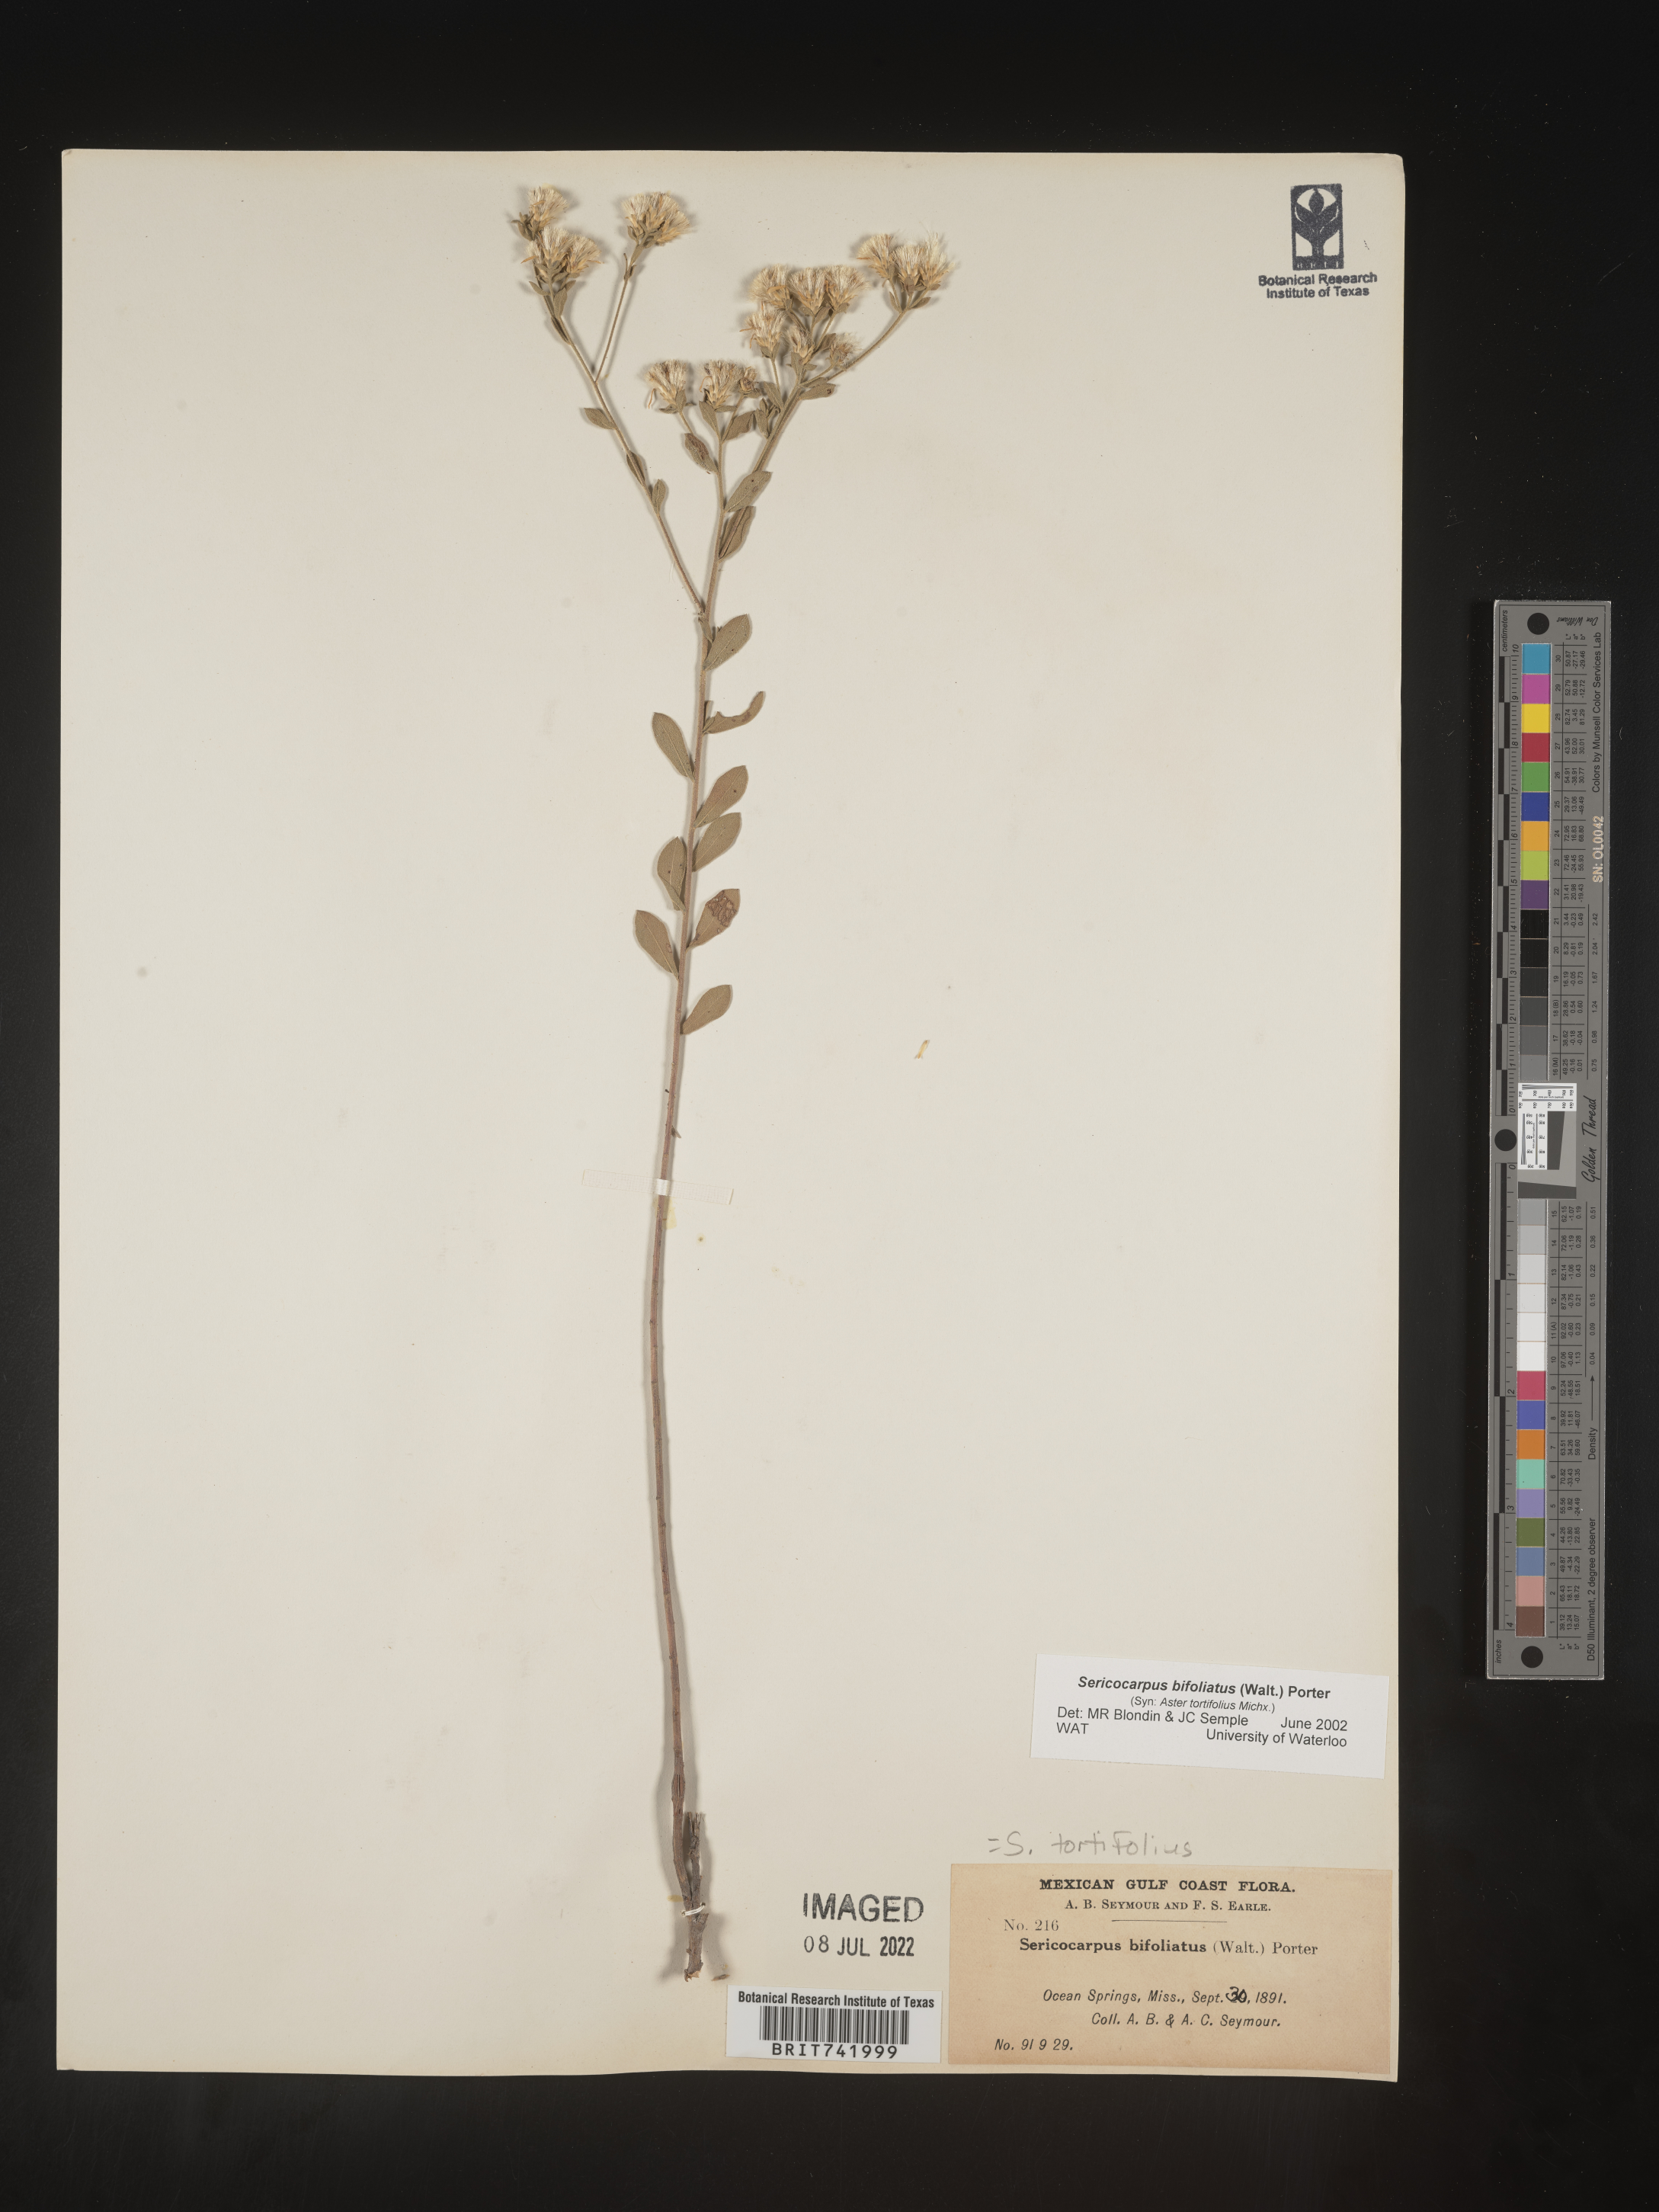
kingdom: Plantae
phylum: Tracheophyta
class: Magnoliopsida
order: Asterales
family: Asteraceae
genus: Sericocarpus
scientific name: Sericocarpus tortifolius
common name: Dixie aster
